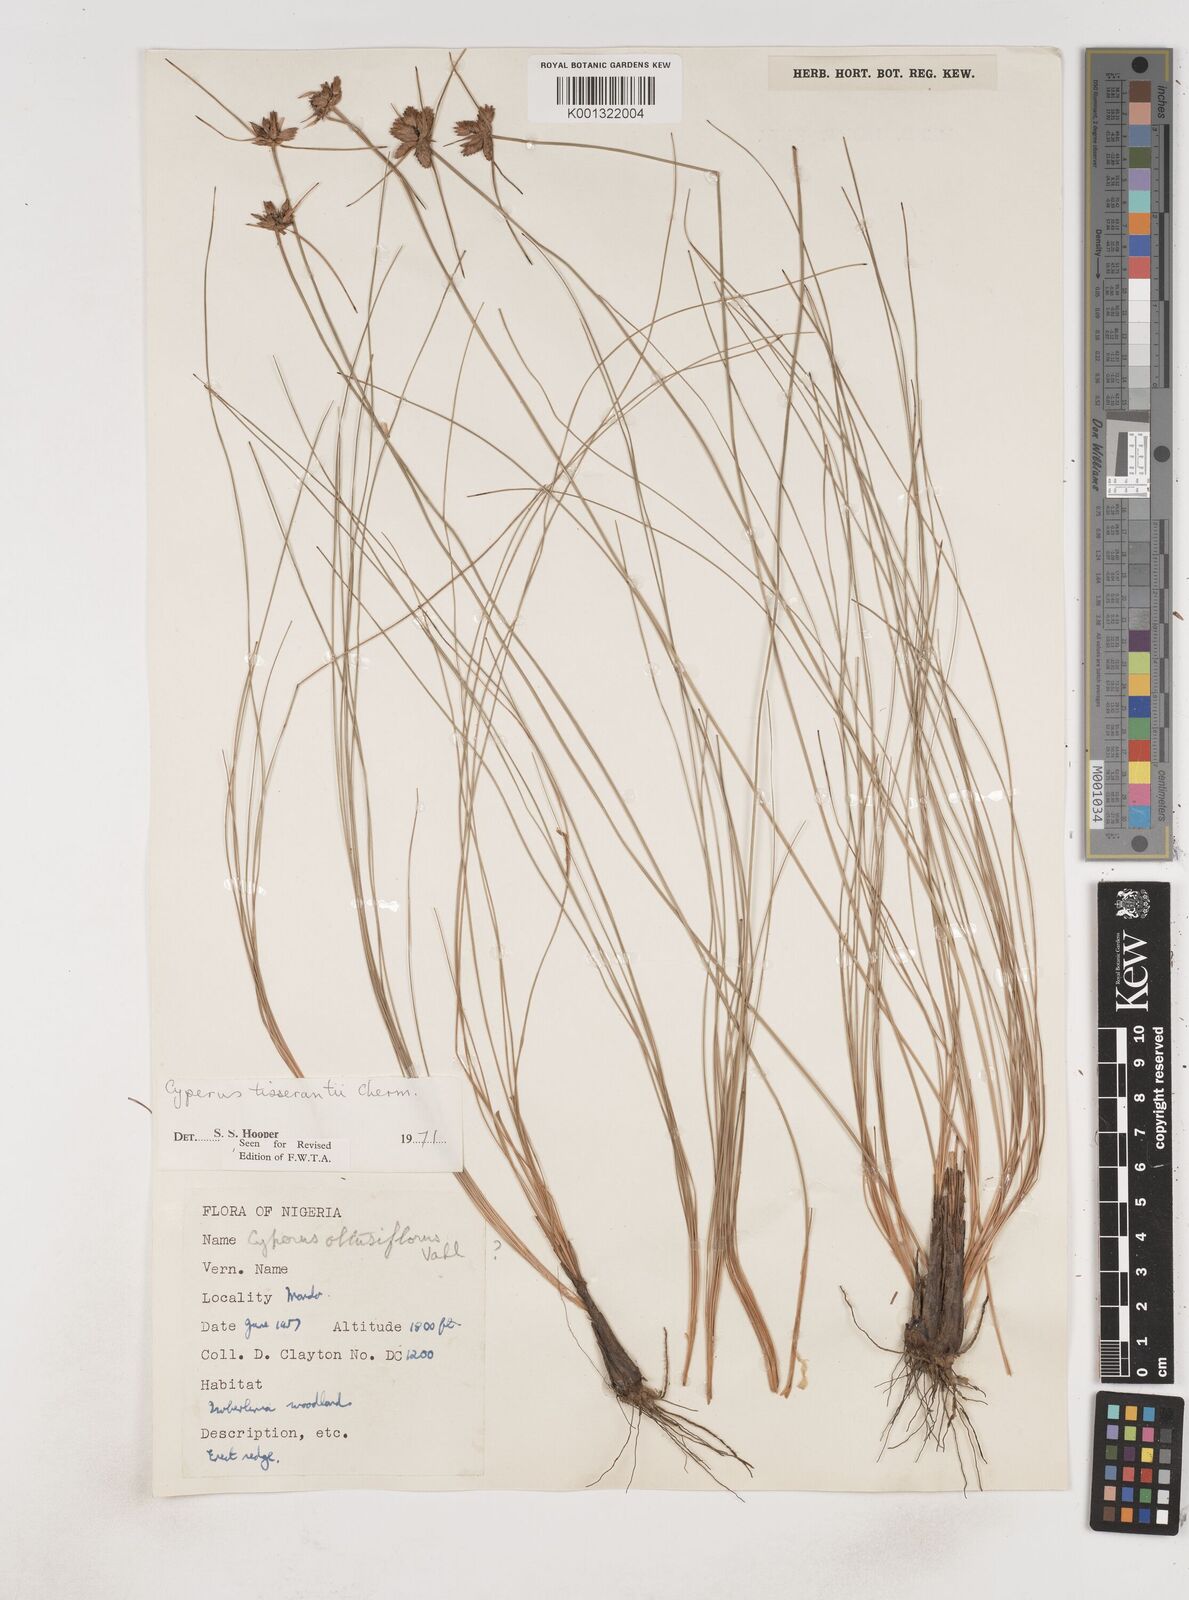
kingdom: Plantae
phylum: Tracheophyta
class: Liliopsida
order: Poales
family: Cyperaceae
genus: Cyperus
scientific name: Cyperus niveus
